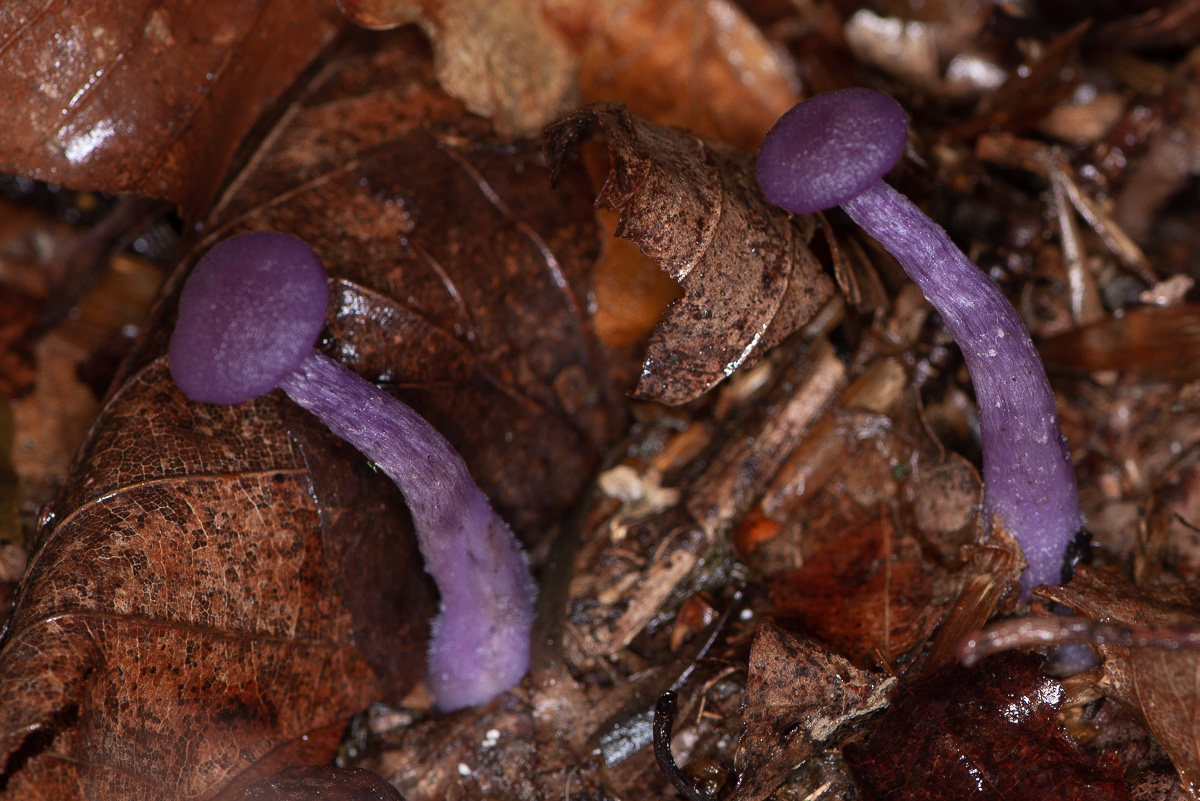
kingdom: Fungi
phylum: Basidiomycota
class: Agaricomycetes
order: Agaricales
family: Hydnangiaceae
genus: Laccaria
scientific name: Laccaria amethystina
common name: violet ametysthat
